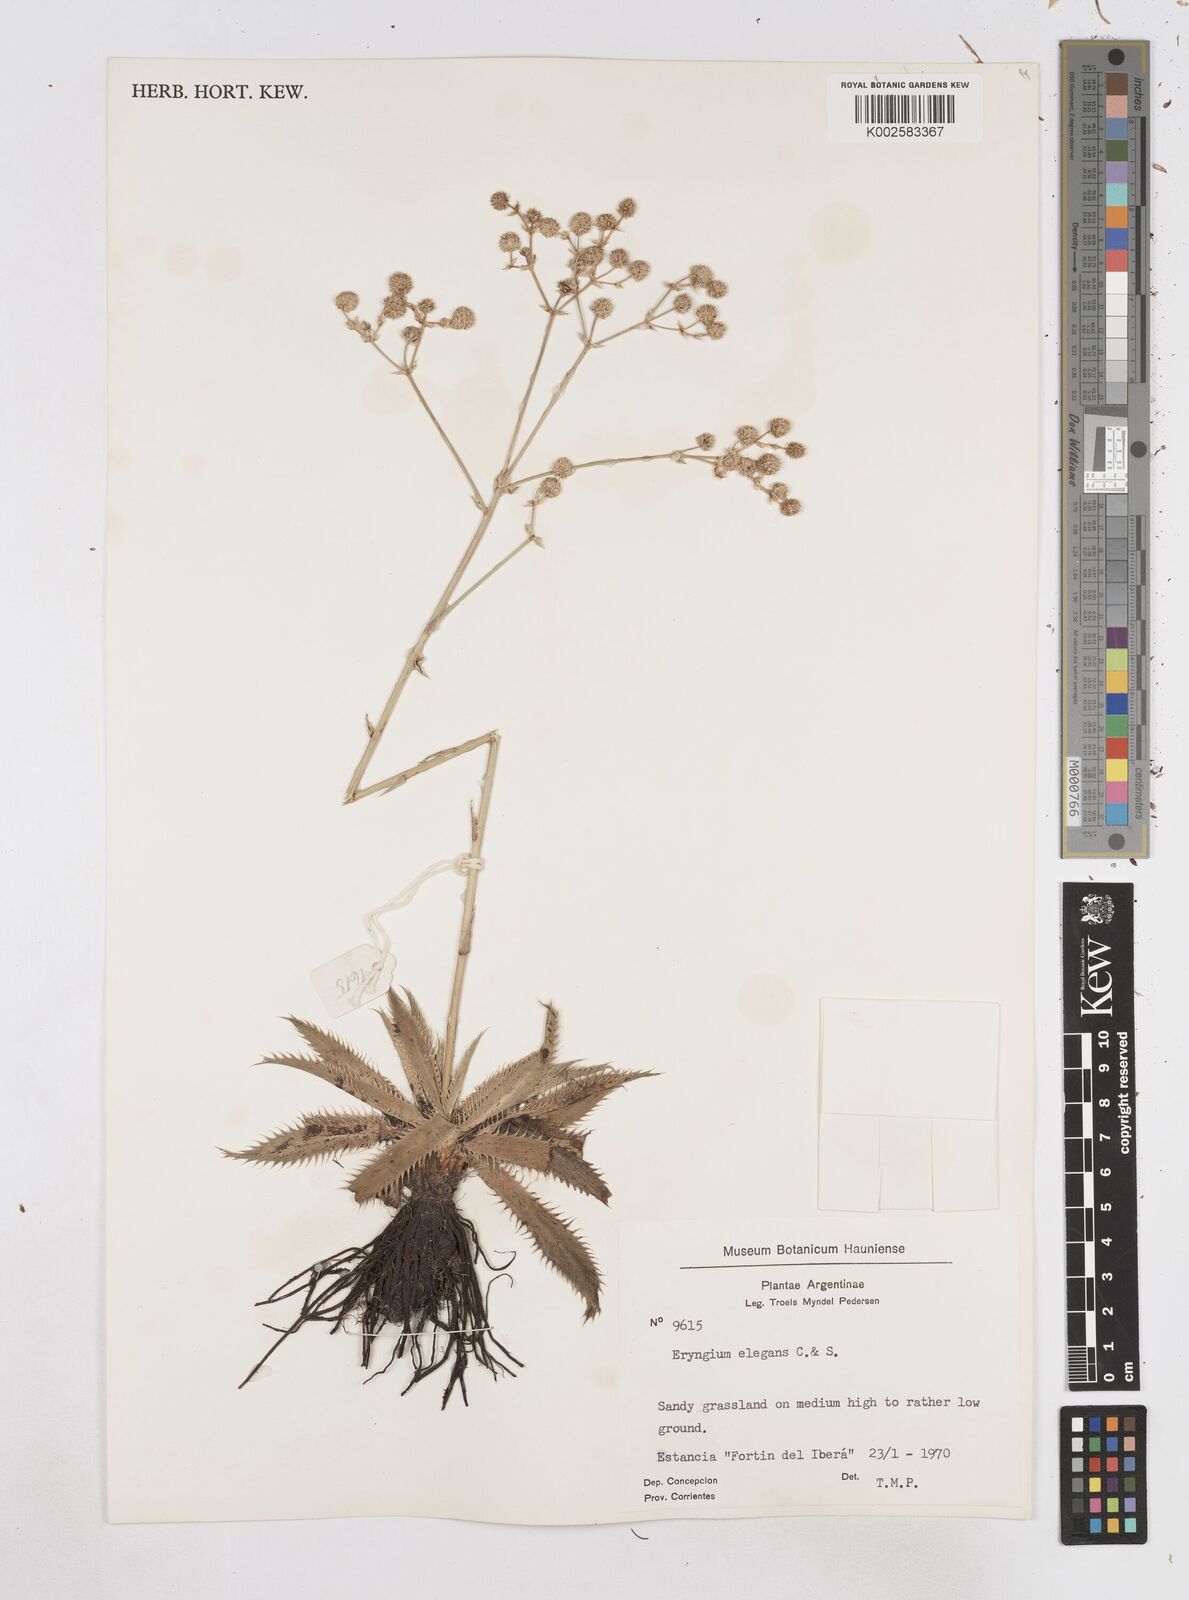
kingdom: Plantae
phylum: Tracheophyta
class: Magnoliopsida
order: Apiales
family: Apiaceae
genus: Eryngium
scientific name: Eryngium elegans
